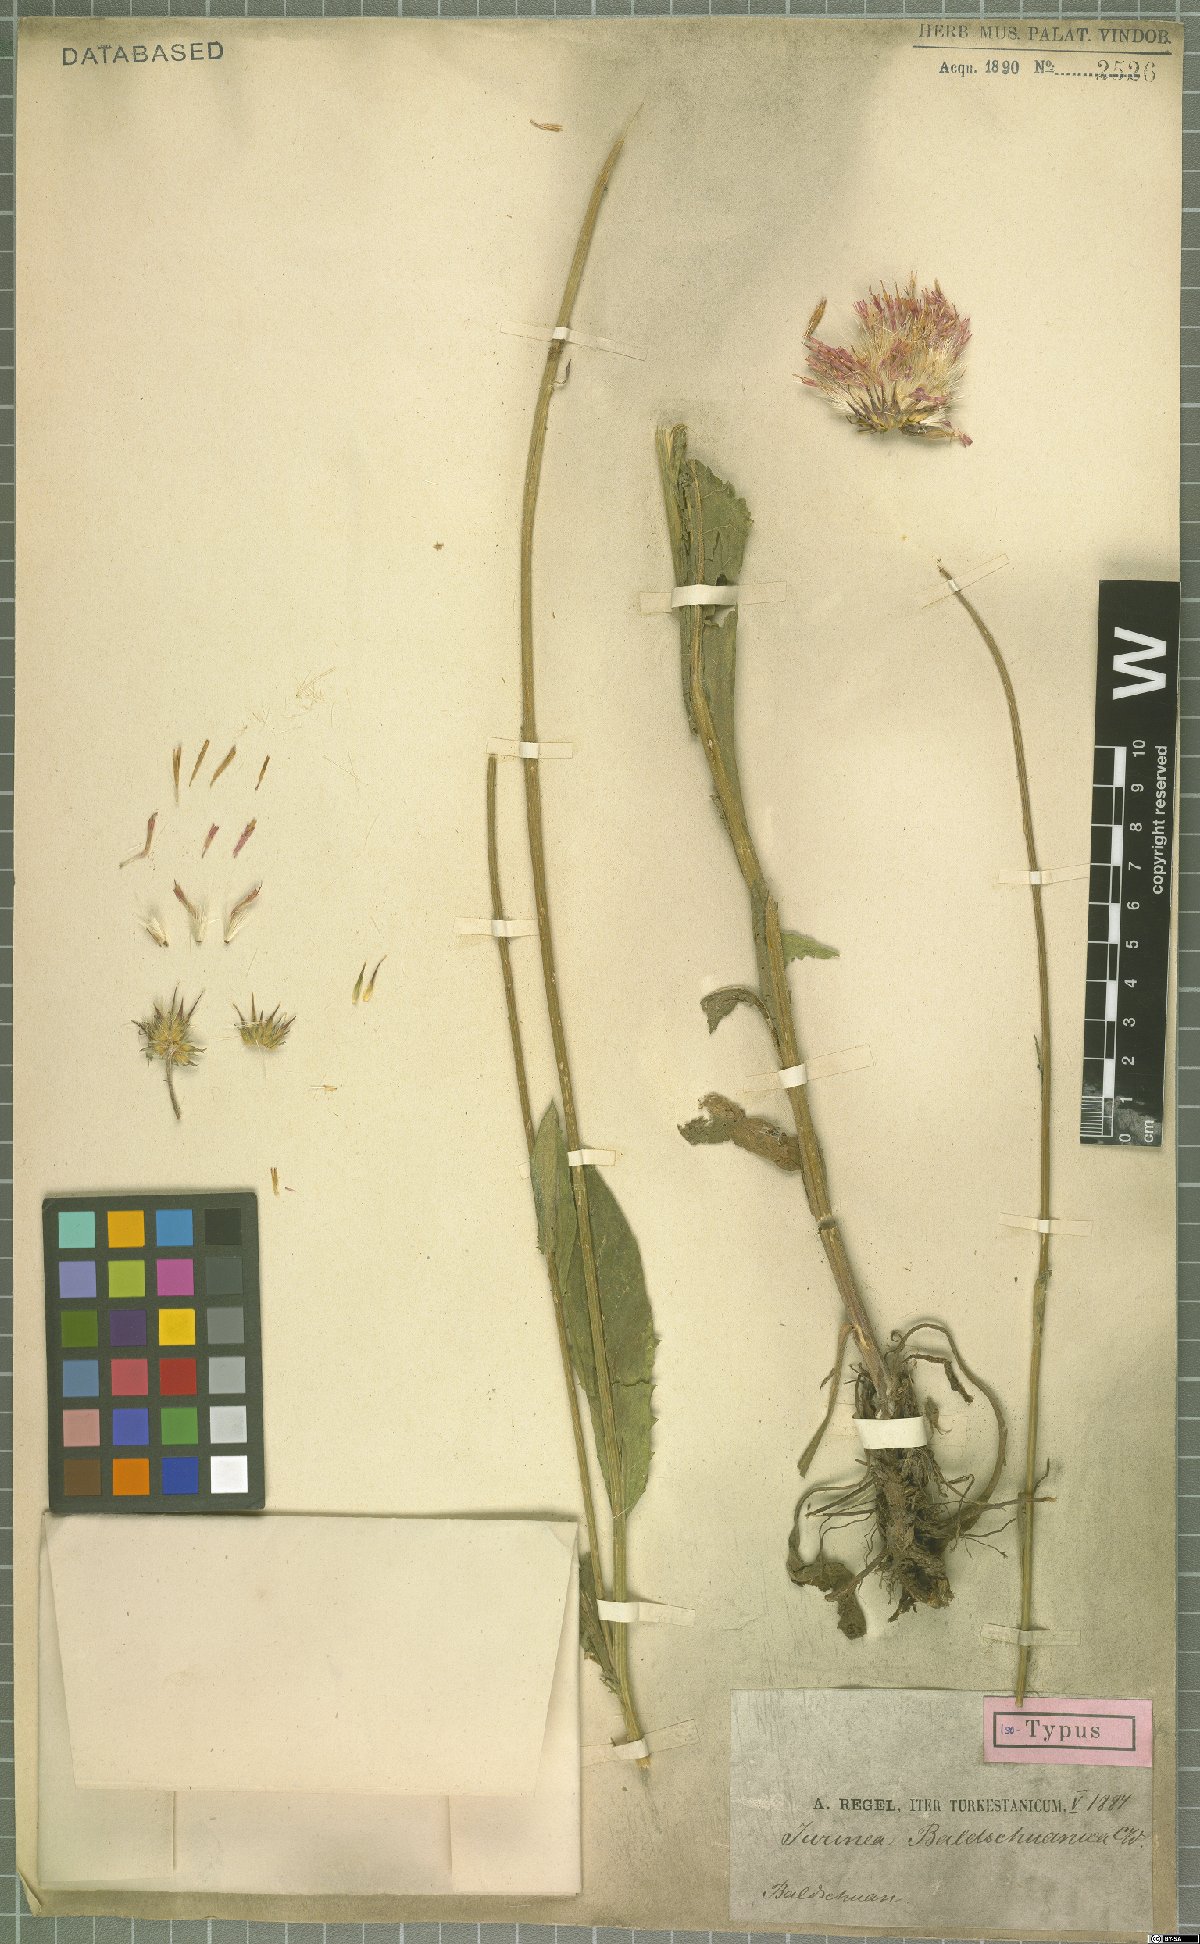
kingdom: Plantae
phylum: Tracheophyta
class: Magnoliopsida
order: Asterales
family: Asteraceae
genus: Jurinea
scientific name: Jurinea baldschuanica
